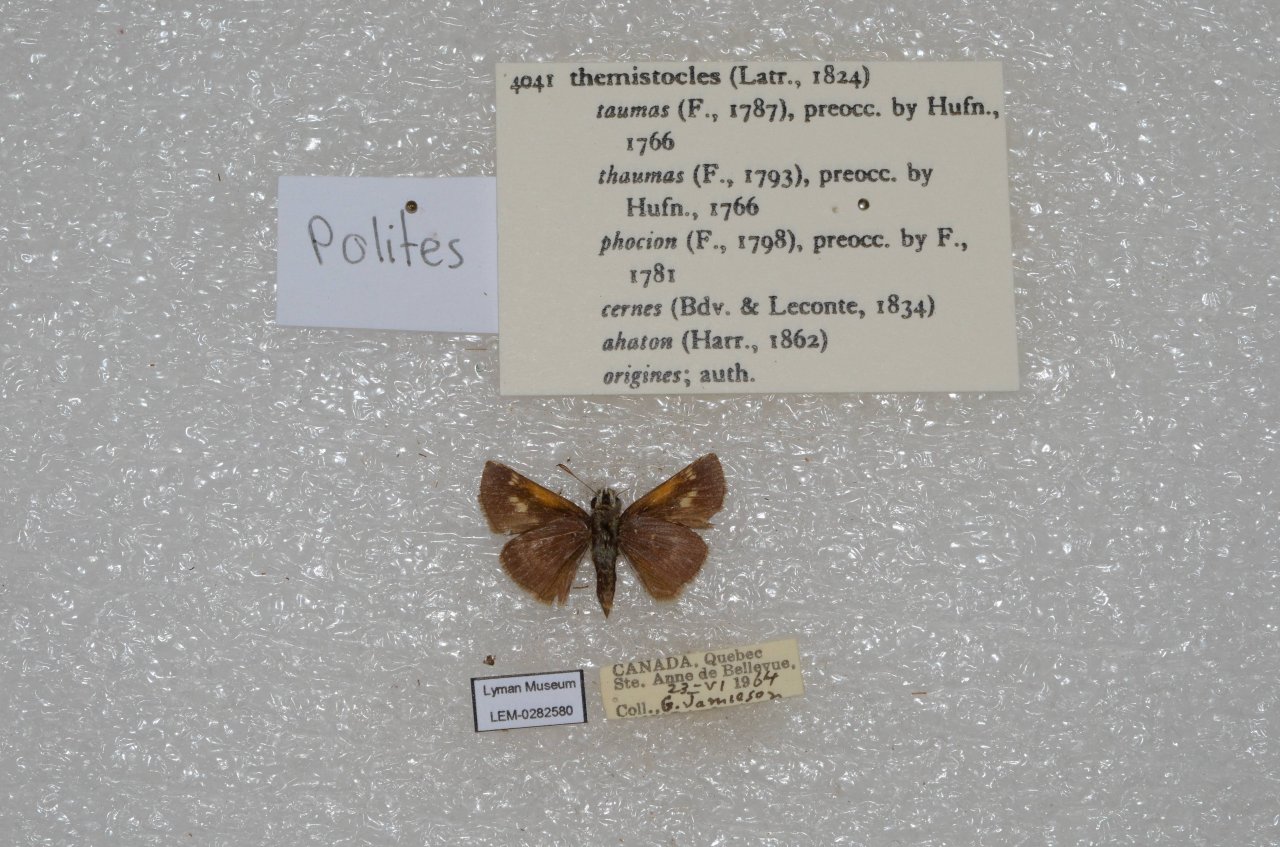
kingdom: Animalia
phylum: Arthropoda
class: Insecta
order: Lepidoptera
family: Hesperiidae
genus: Polites
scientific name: Polites themistocles
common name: Tawny-edged Skipper
